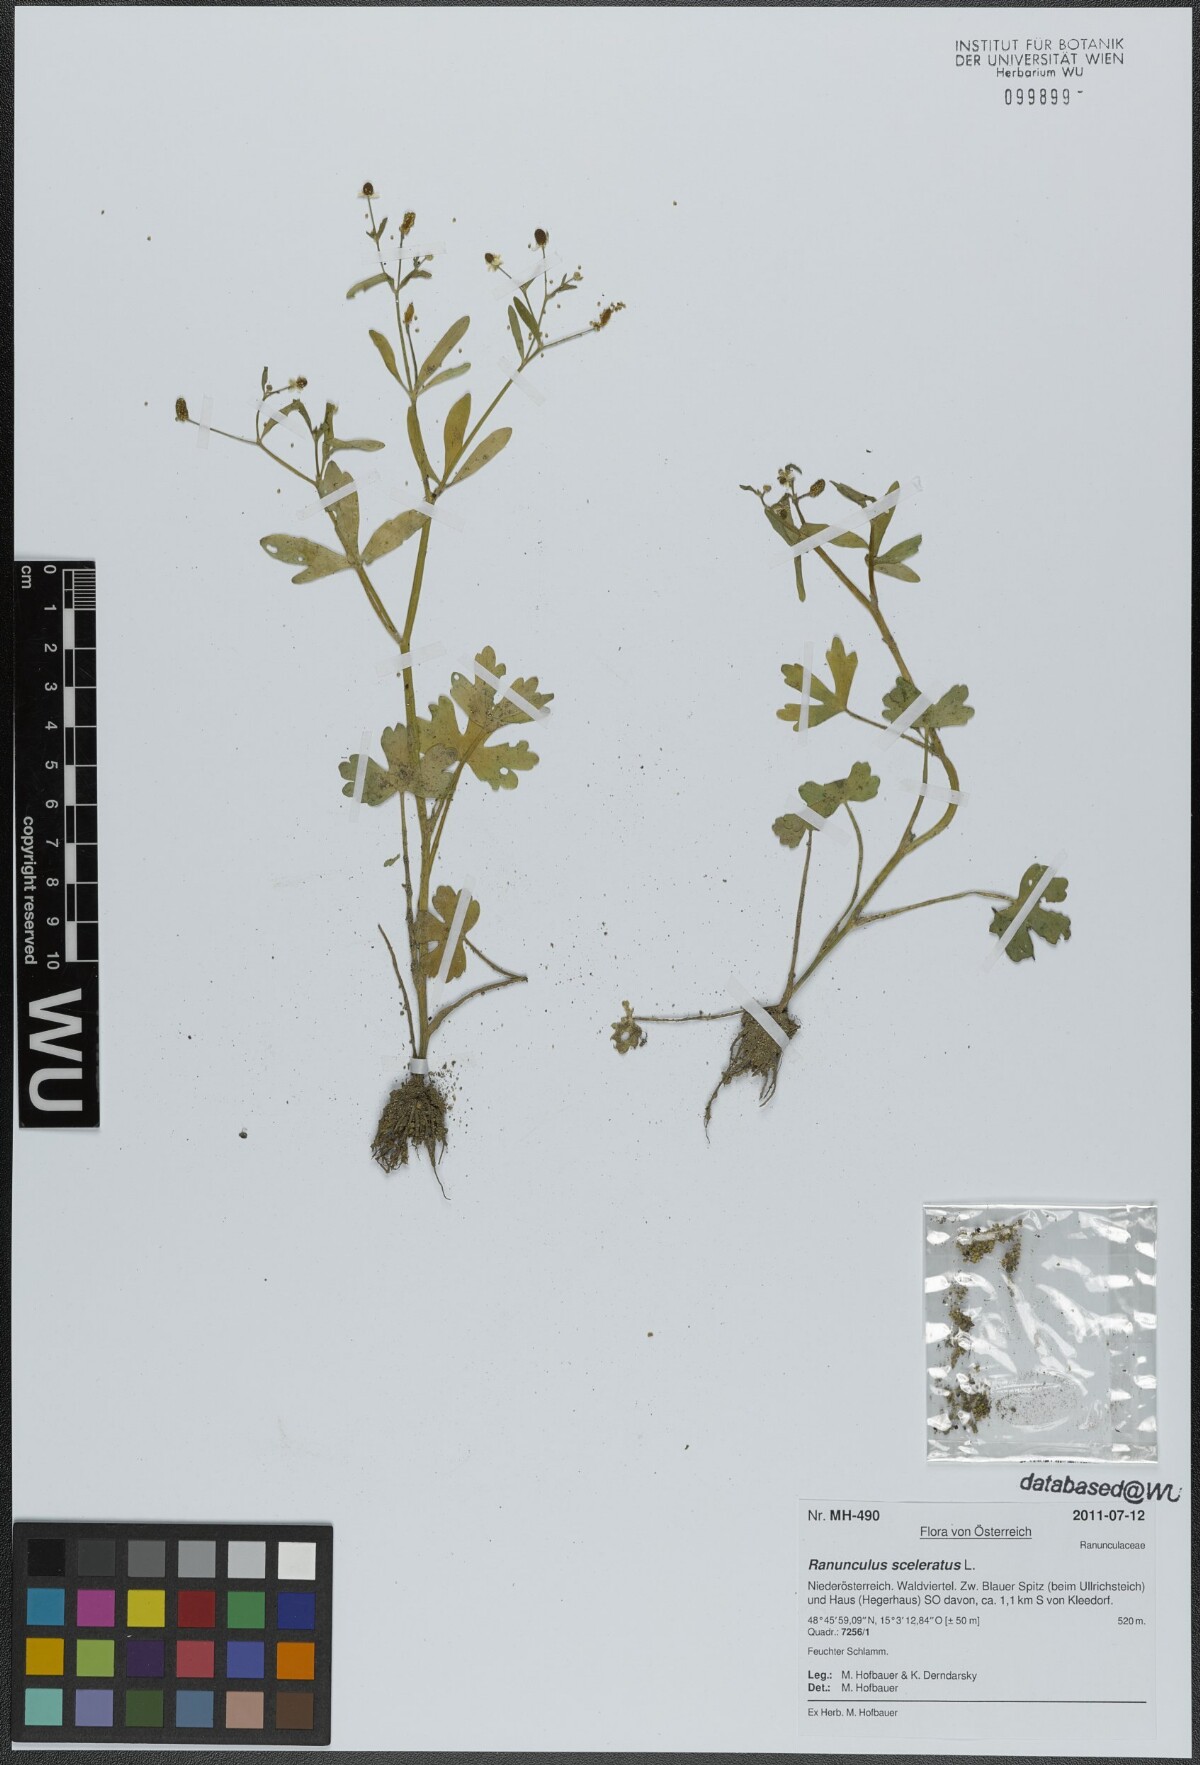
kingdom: Plantae
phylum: Tracheophyta
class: Magnoliopsida
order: Ranunculales
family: Ranunculaceae
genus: Ranunculus
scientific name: Ranunculus sceleratus
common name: Celery-leaved buttercup
